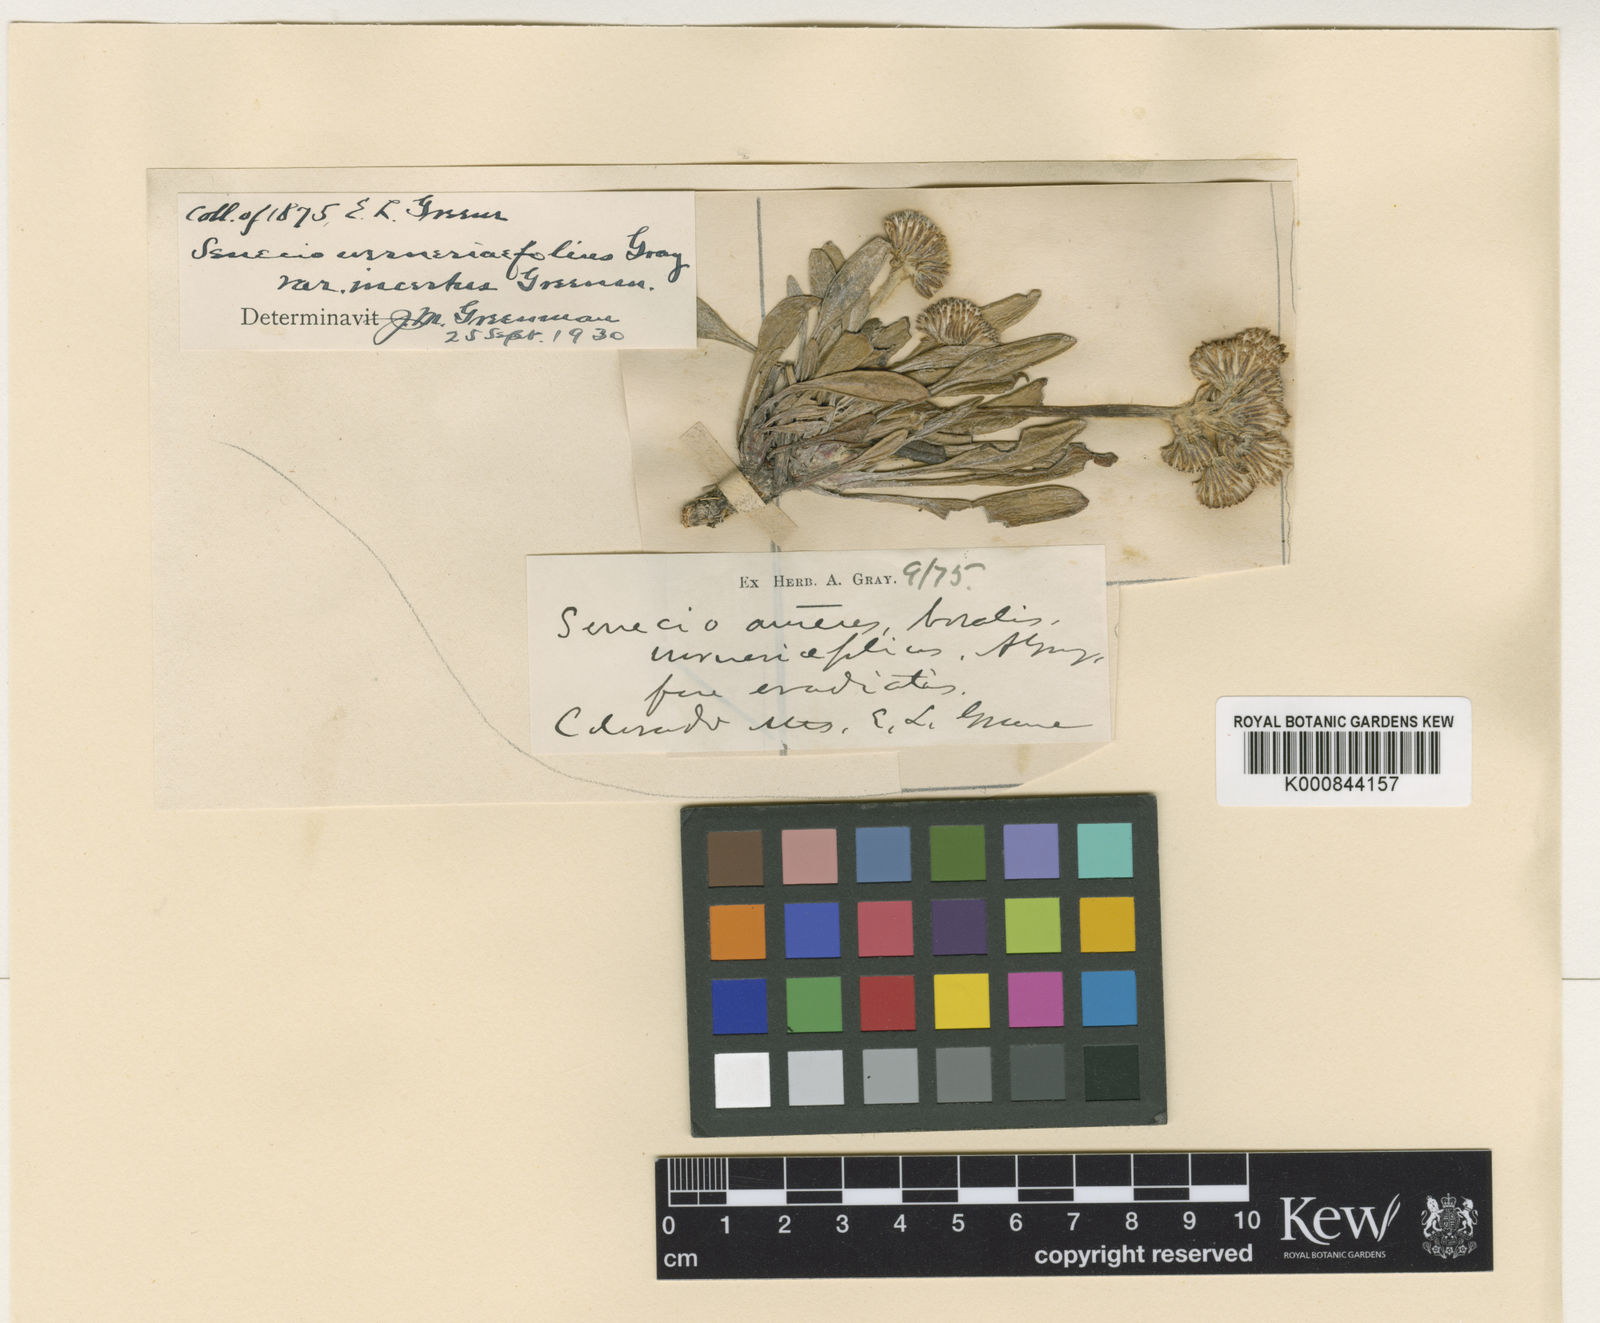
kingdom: Plantae
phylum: Tracheophyta
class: Magnoliopsida
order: Asterales
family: Asteraceae
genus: Packera
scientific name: Packera
